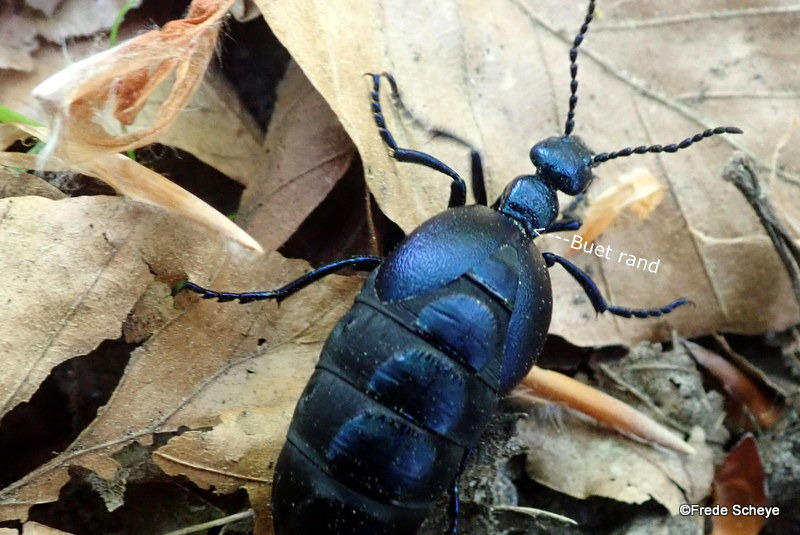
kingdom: Animalia
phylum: Arthropoda
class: Insecta
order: Coleoptera
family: Meloidae
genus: Meloe
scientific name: Meloe violaceus
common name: Blå oliebille
